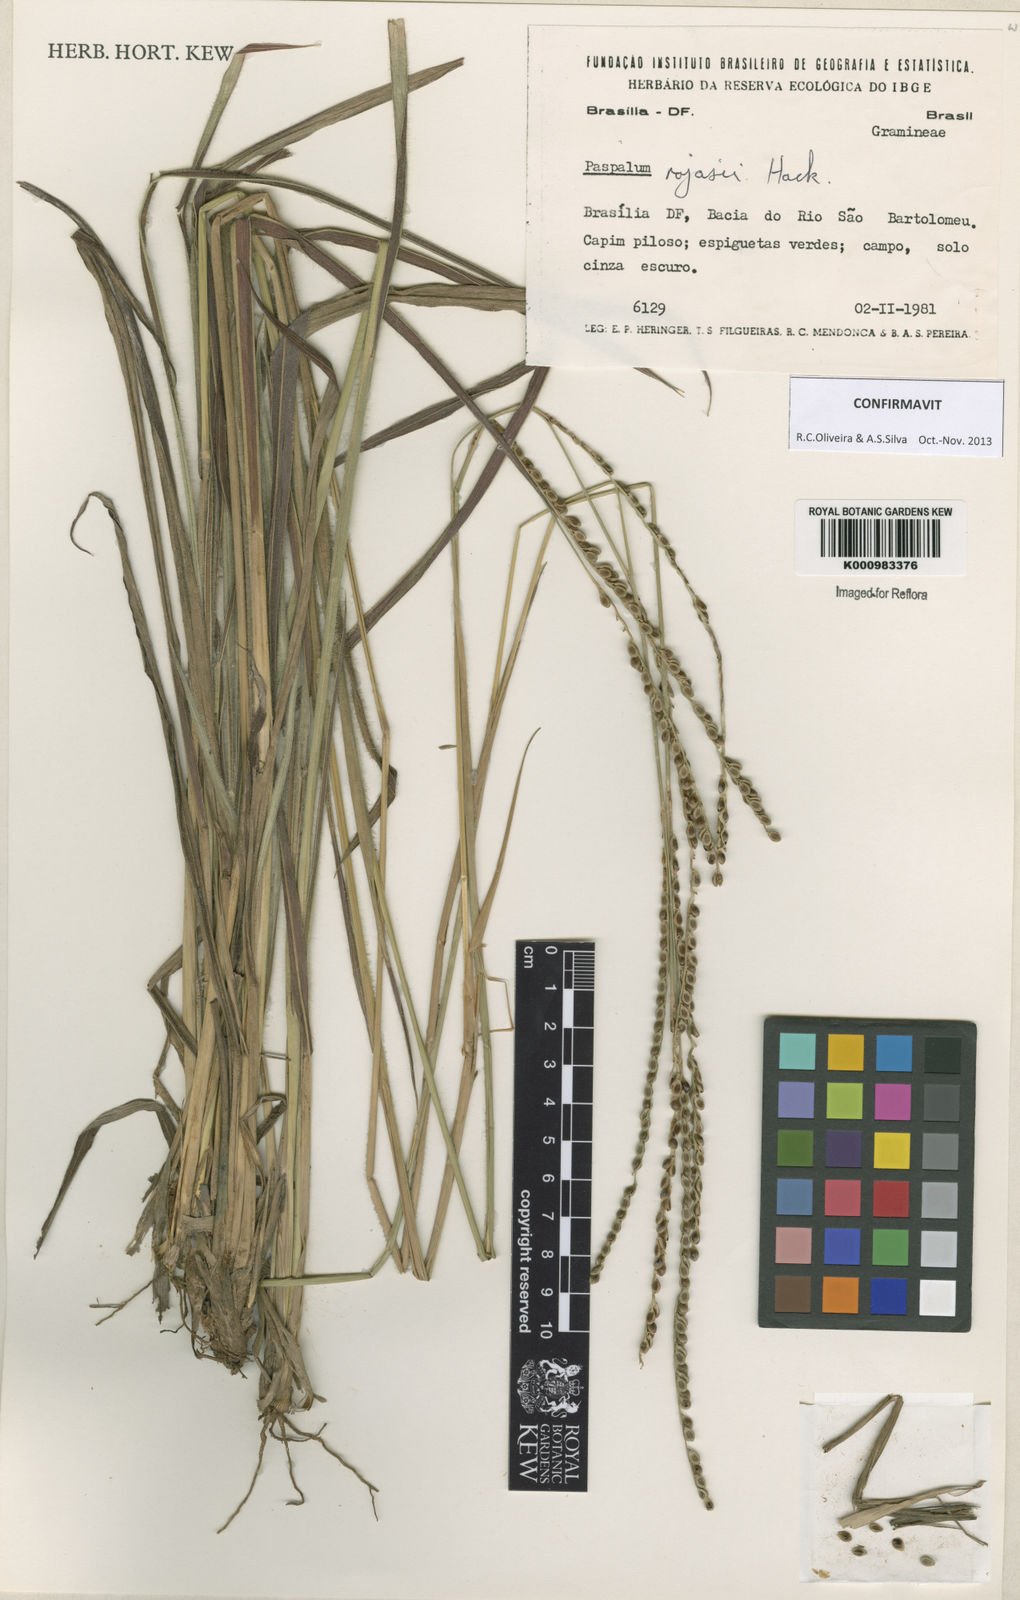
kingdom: Plantae
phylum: Tracheophyta
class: Liliopsida
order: Poales
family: Poaceae
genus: Paspalum
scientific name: Paspalum guenoarum
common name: Wintergreen paspalum
